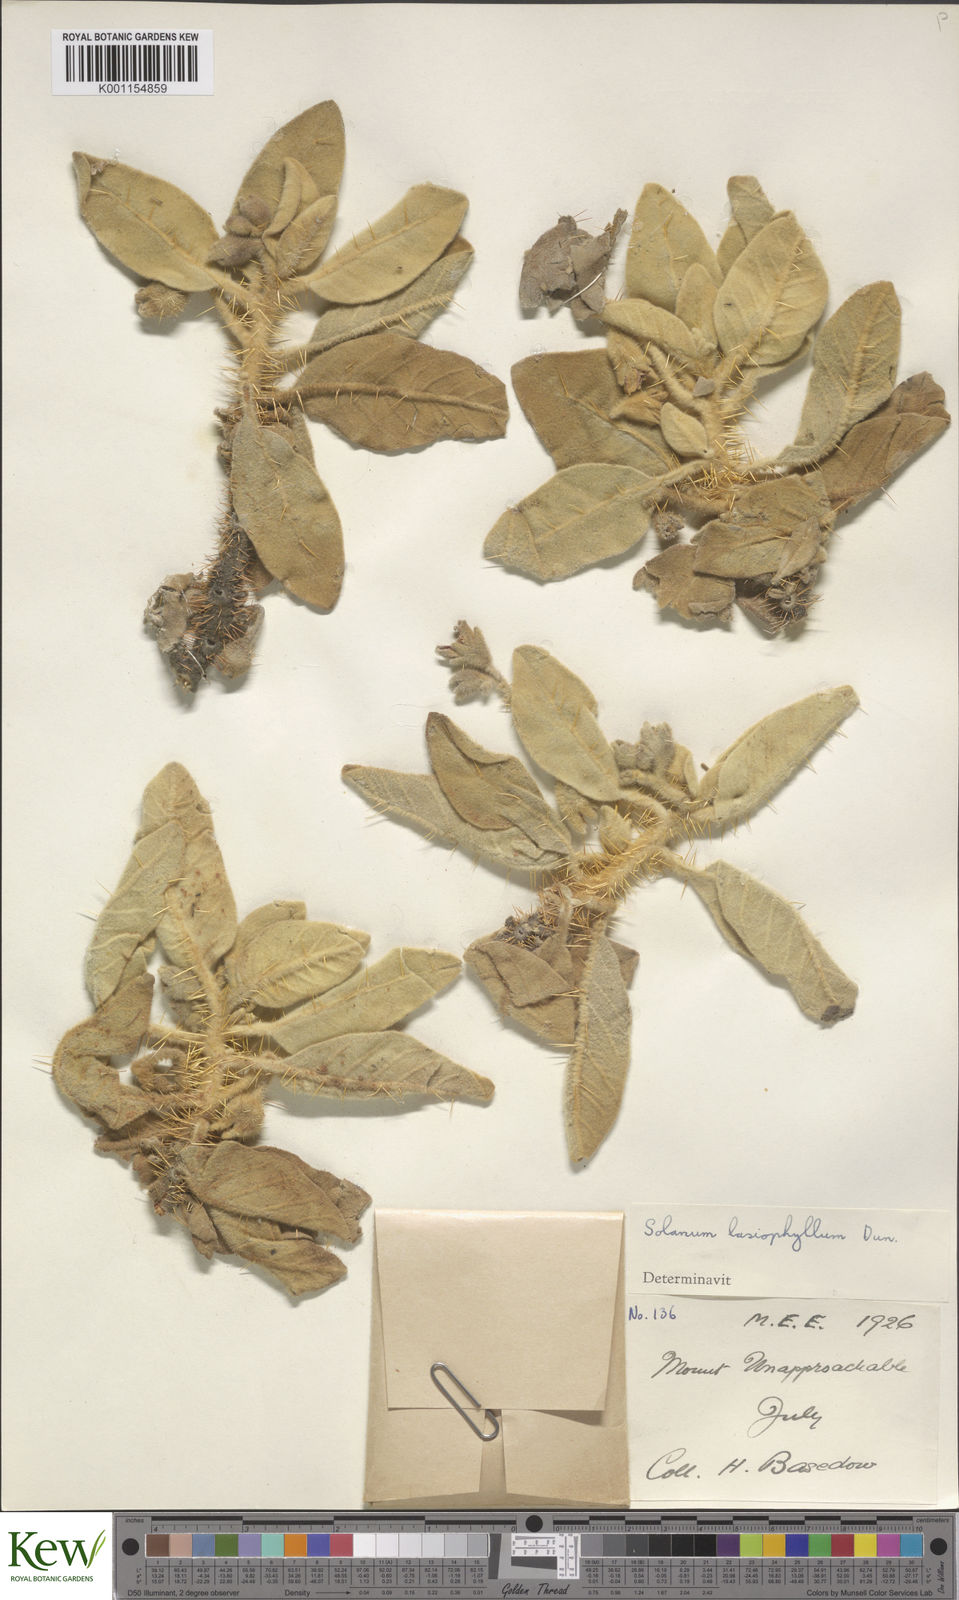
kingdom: Plantae
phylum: Tracheophyta
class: Magnoliopsida
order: Solanales
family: Solanaceae
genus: Solanum
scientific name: Solanum lasiophyllum
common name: Flannelbush
